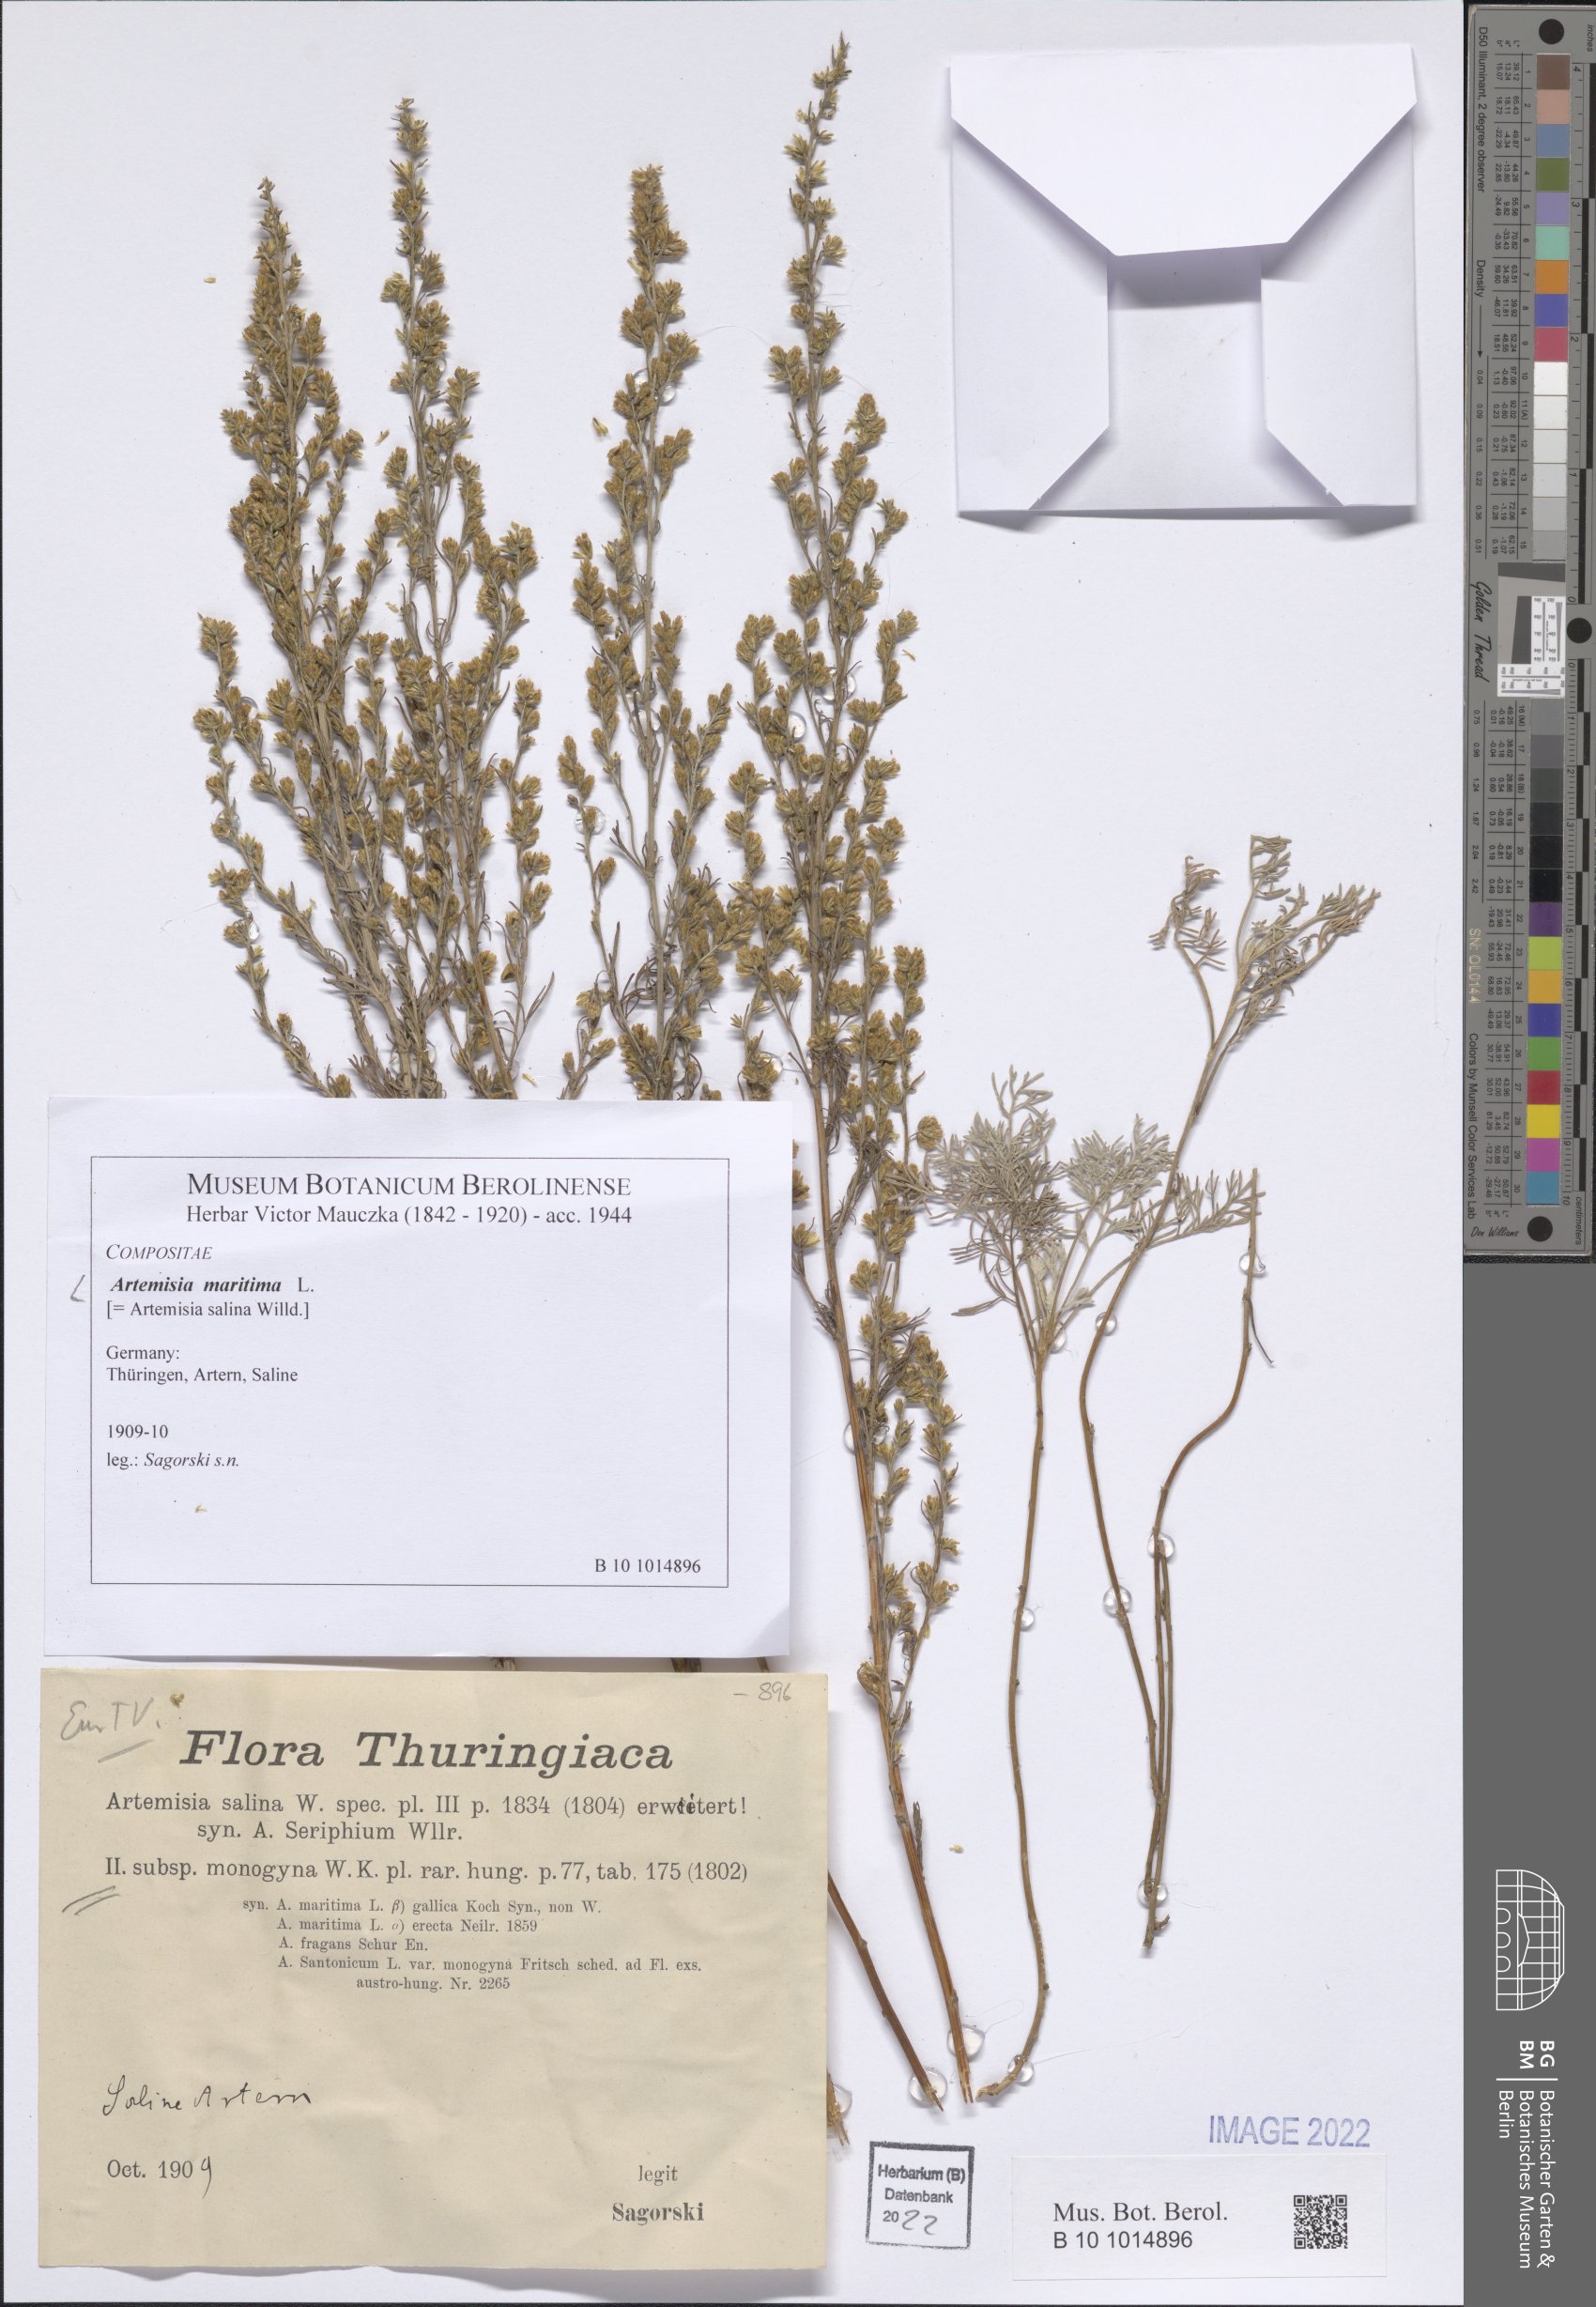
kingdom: Plantae
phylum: Tracheophyta
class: Magnoliopsida
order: Asterales
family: Asteraceae
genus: Artemisia
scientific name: Artemisia maritima
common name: Wormseed
